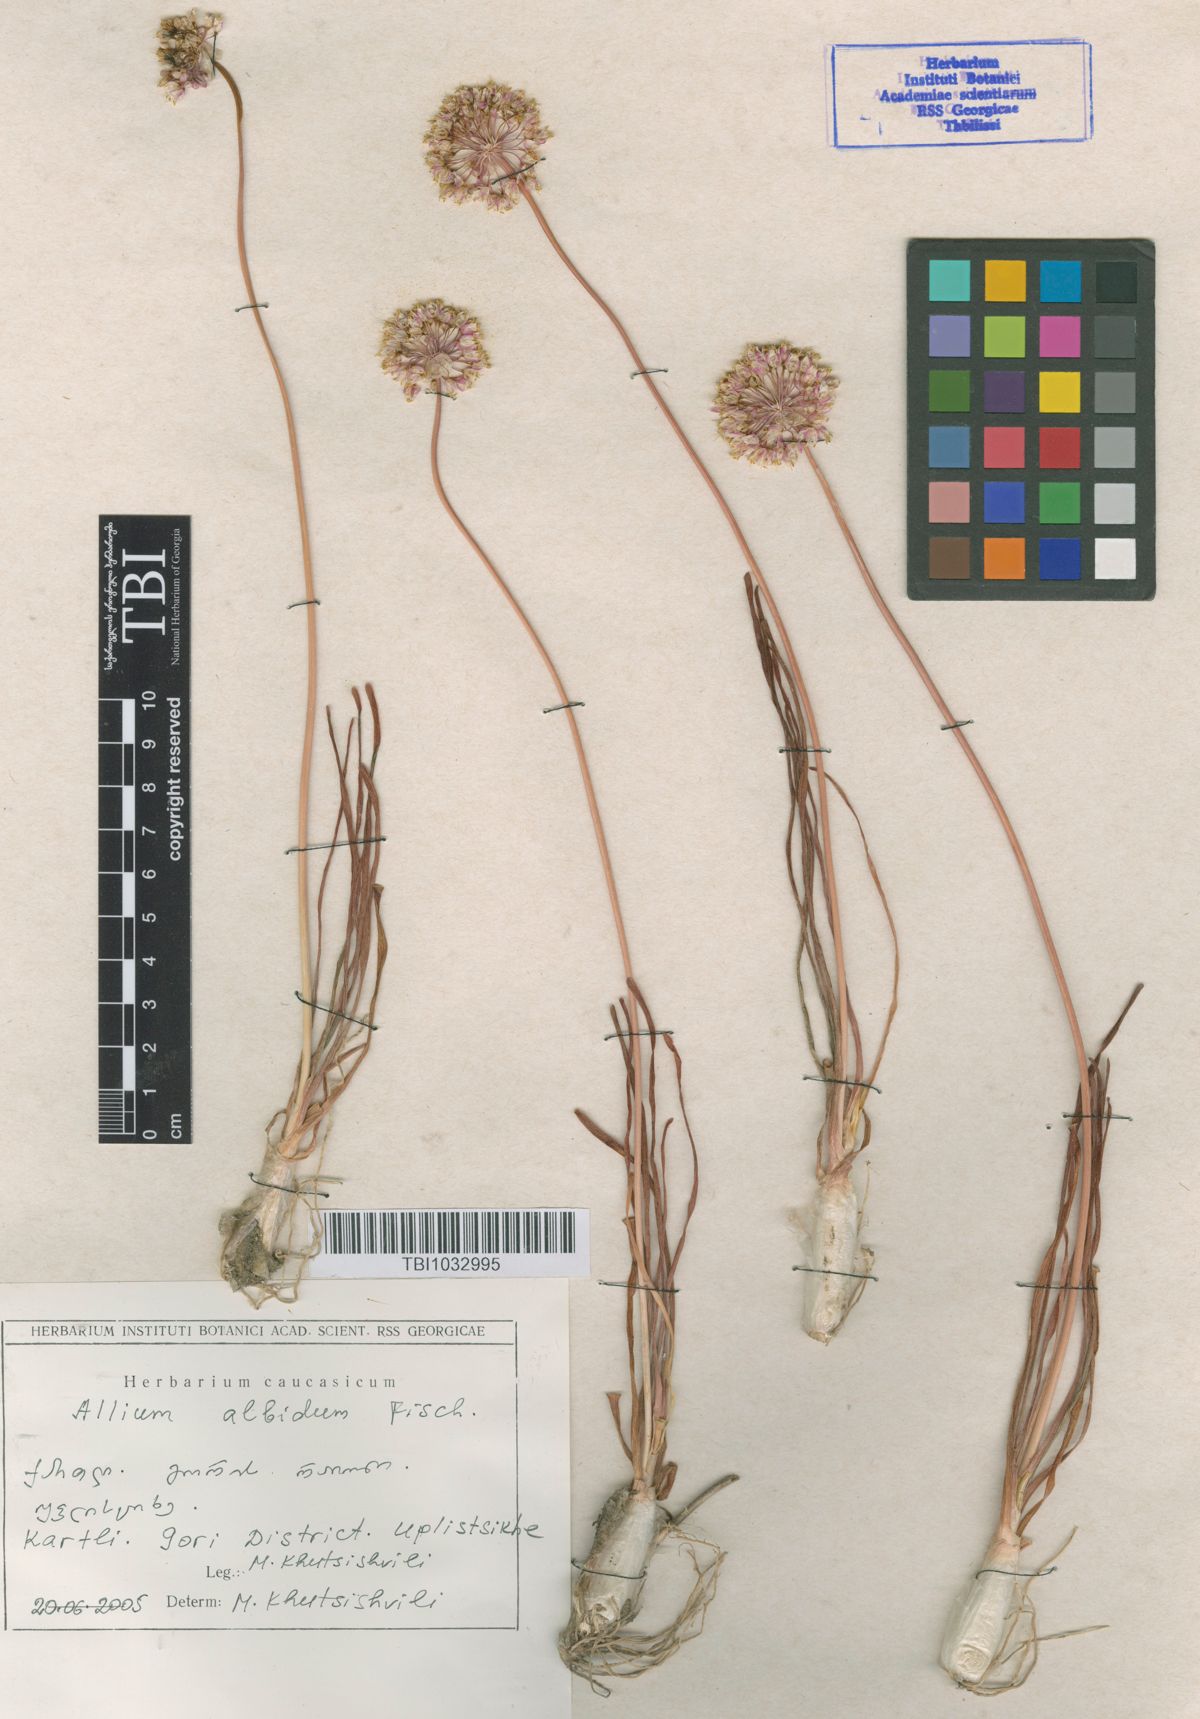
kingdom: Plantae
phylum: Tracheophyta
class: Liliopsida
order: Asparagales
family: Amaryllidaceae
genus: Allium
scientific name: Allium denudatum
